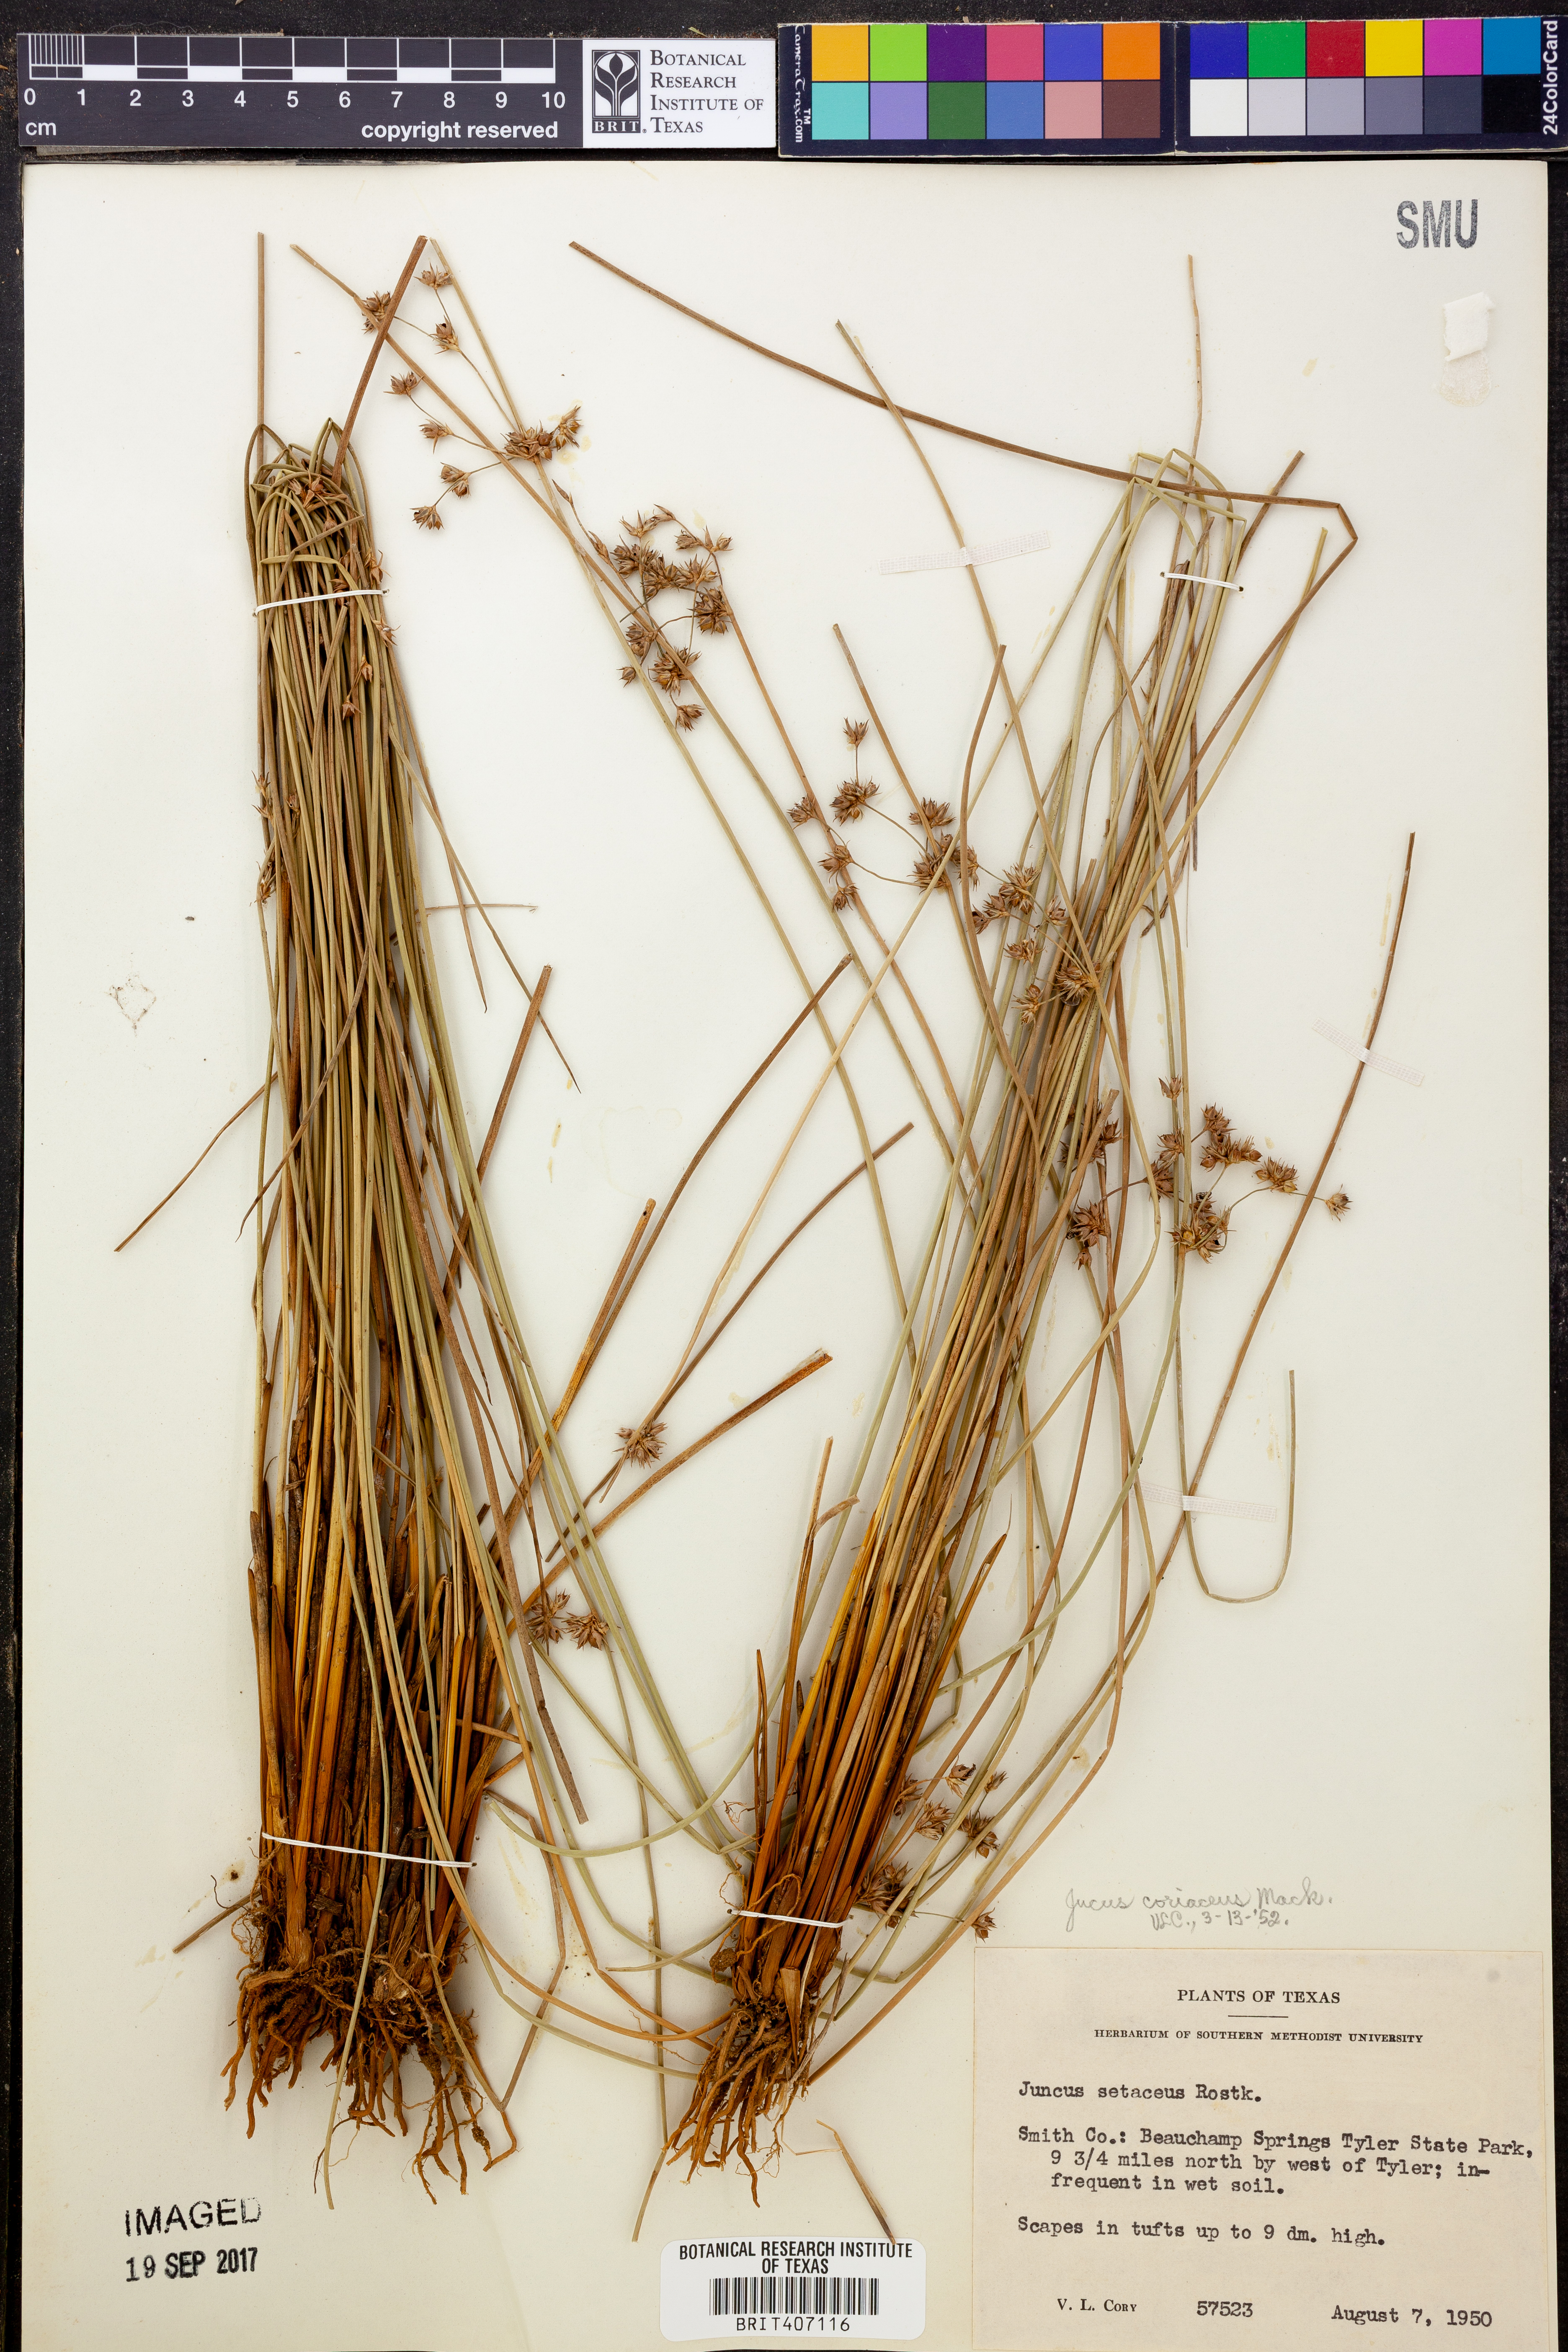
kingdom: Plantae
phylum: Tracheophyta
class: Liliopsida
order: Poales
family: Juncaceae
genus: Juncus
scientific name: Juncus coriaceus
